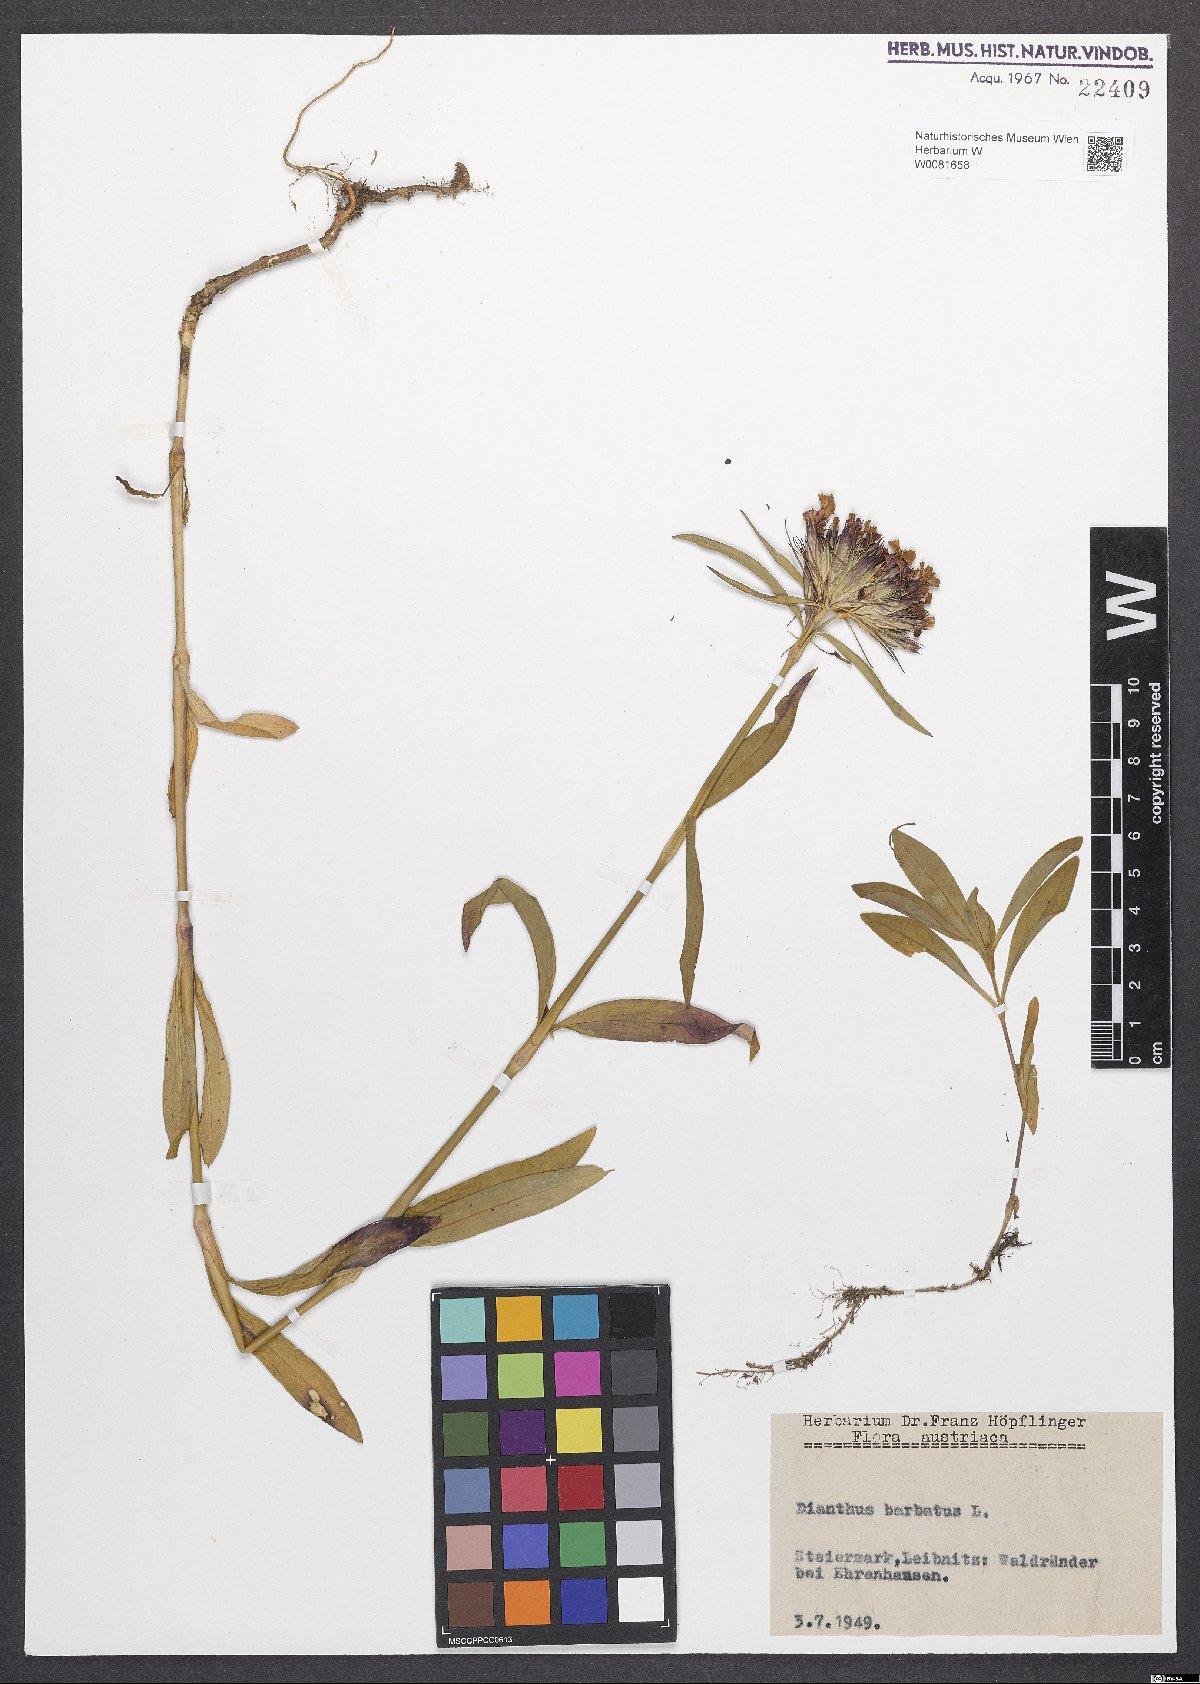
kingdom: Plantae
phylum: Tracheophyta
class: Magnoliopsida
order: Caryophyllales
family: Caryophyllaceae
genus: Dianthus
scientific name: Dianthus barbatus
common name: Sweet-william
